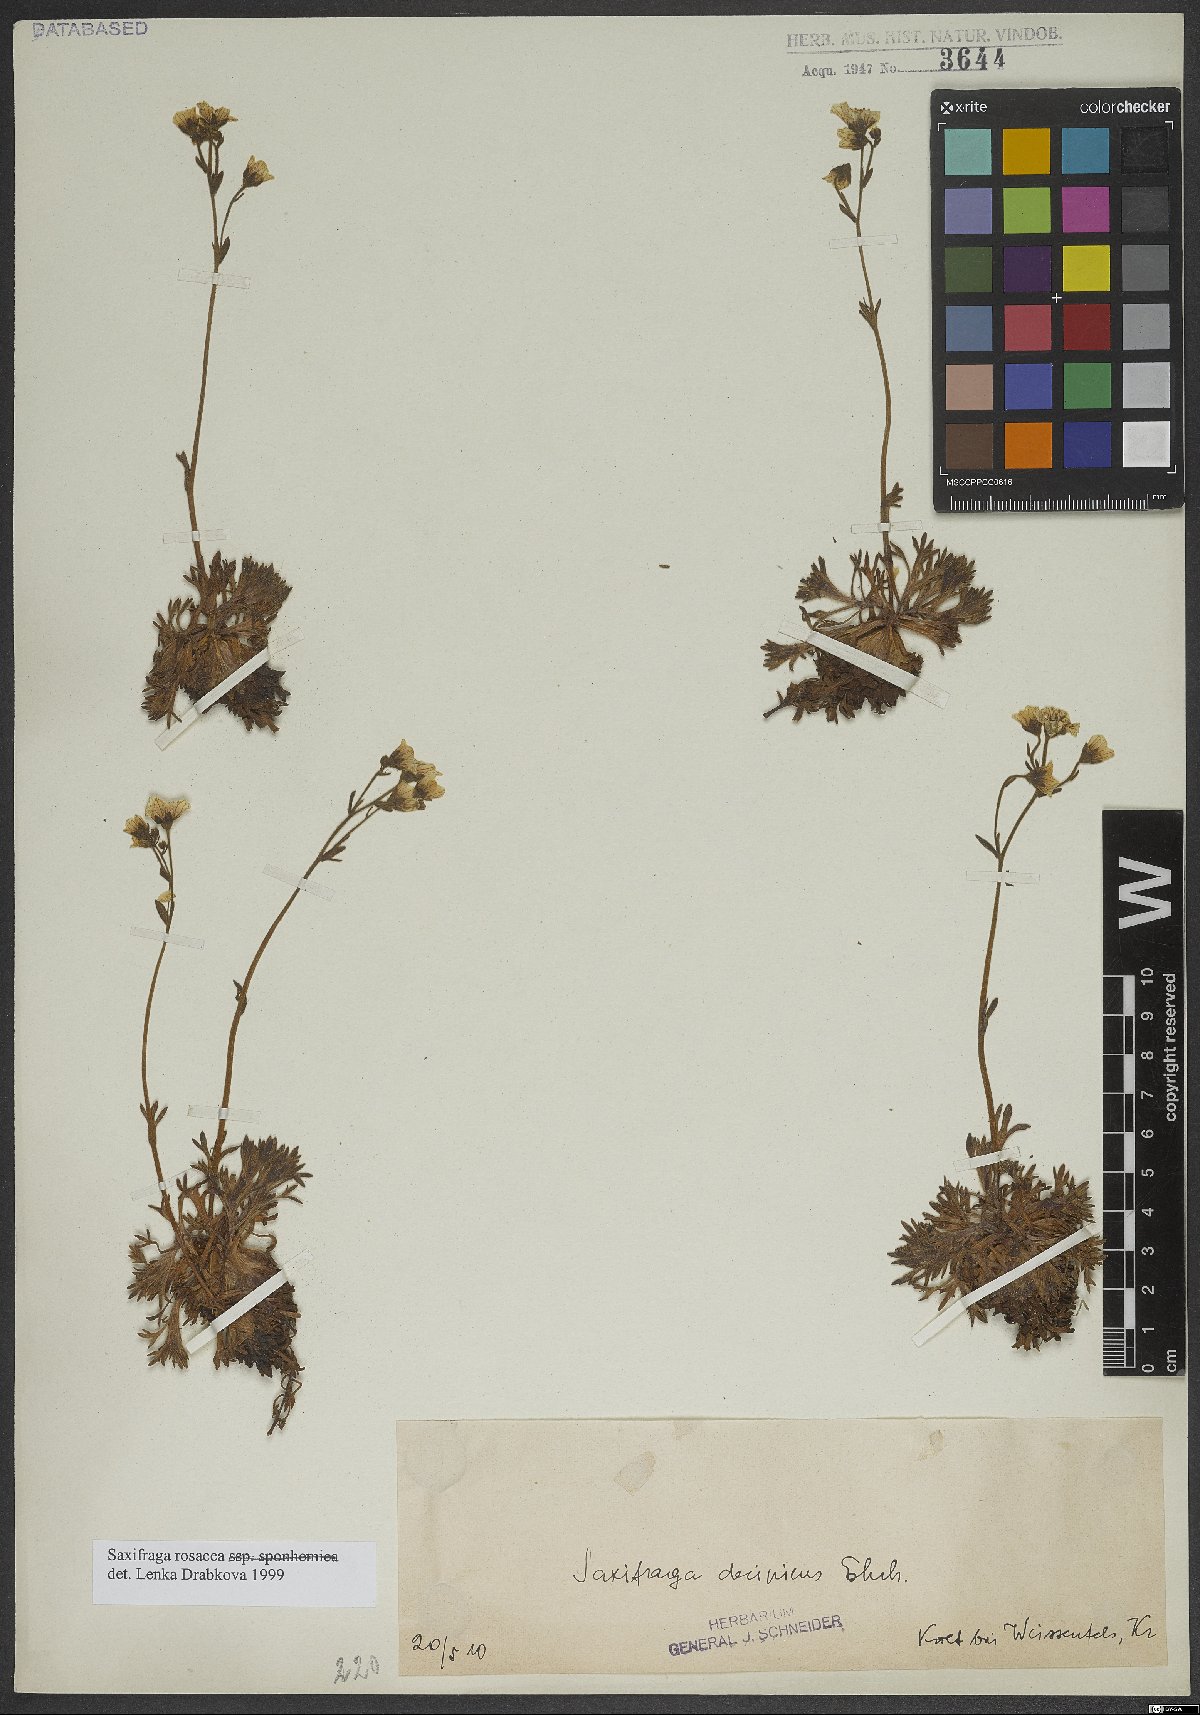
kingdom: Plantae
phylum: Tracheophyta
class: Magnoliopsida
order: Saxifragales
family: Saxifragaceae
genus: Saxifraga
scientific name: Saxifraga rosacea
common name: Irish saxifrage
